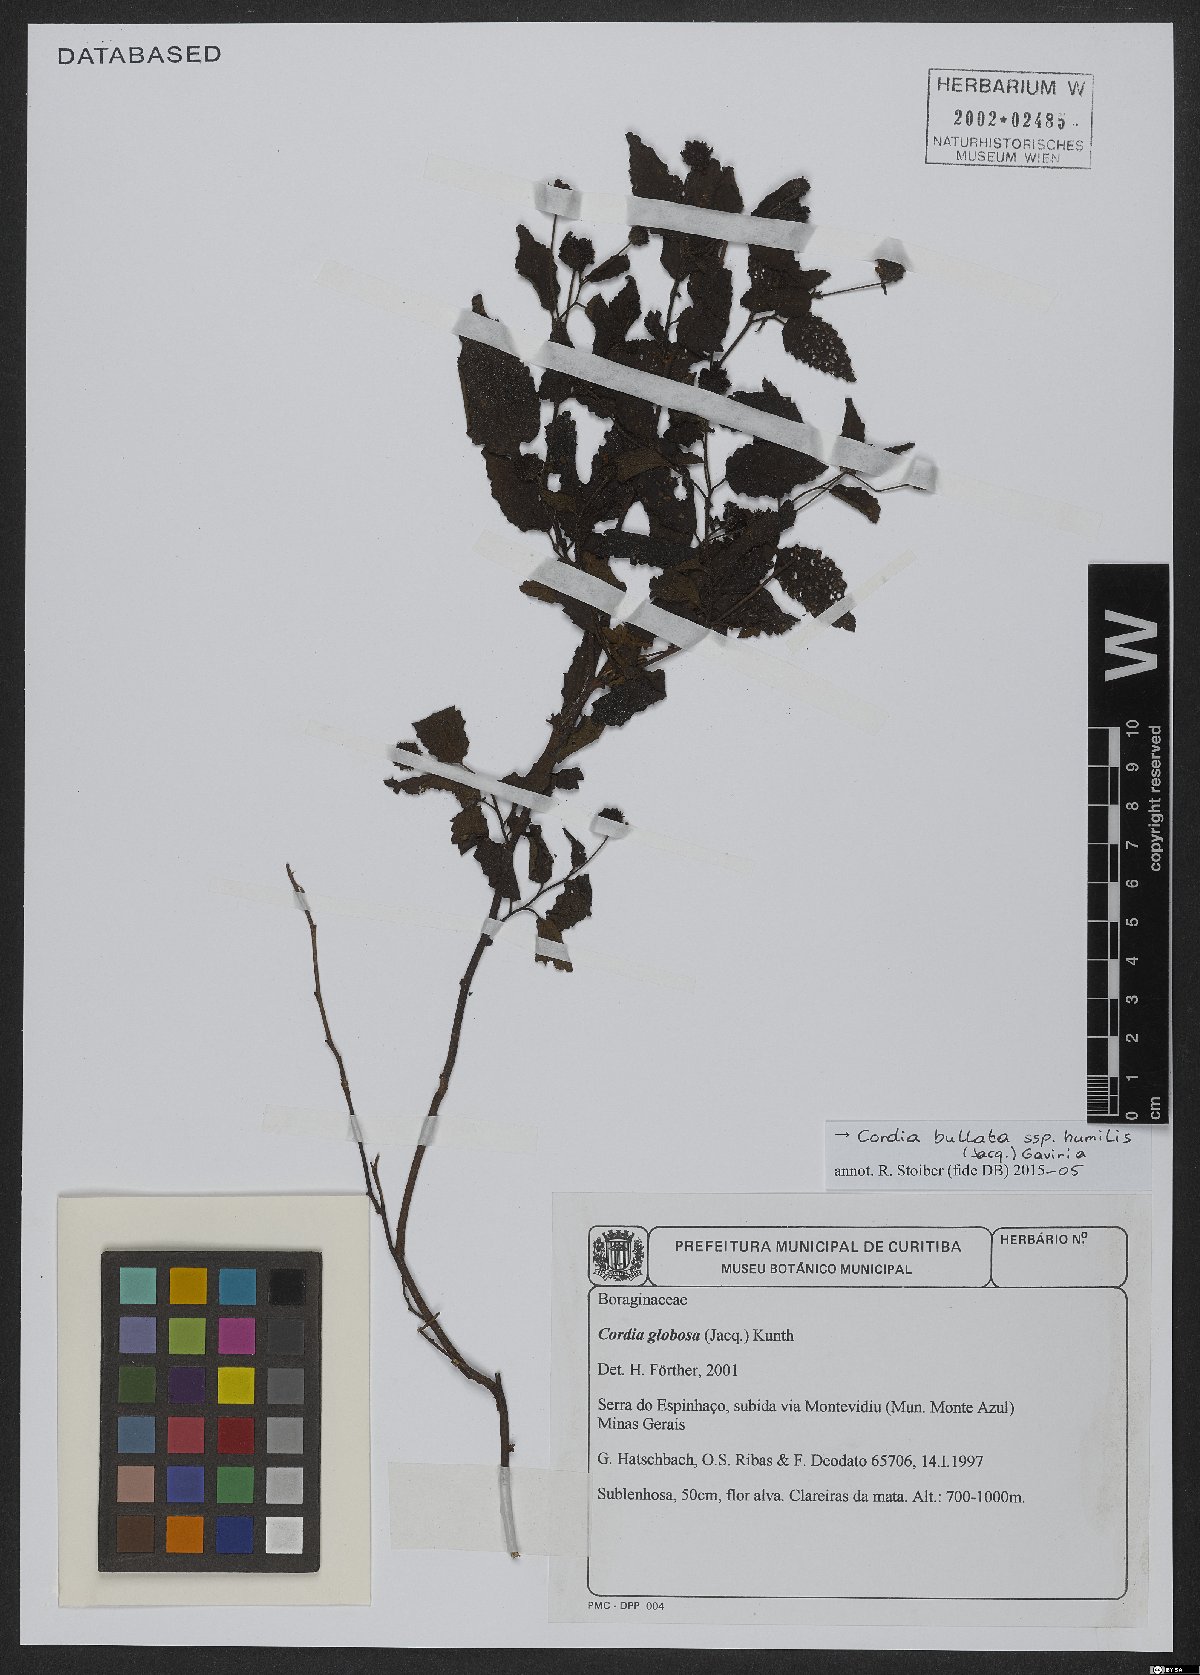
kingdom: Plantae
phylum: Tracheophyta
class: Magnoliopsida
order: Boraginales
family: Cordiaceae
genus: Varronia
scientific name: Varronia bullata
